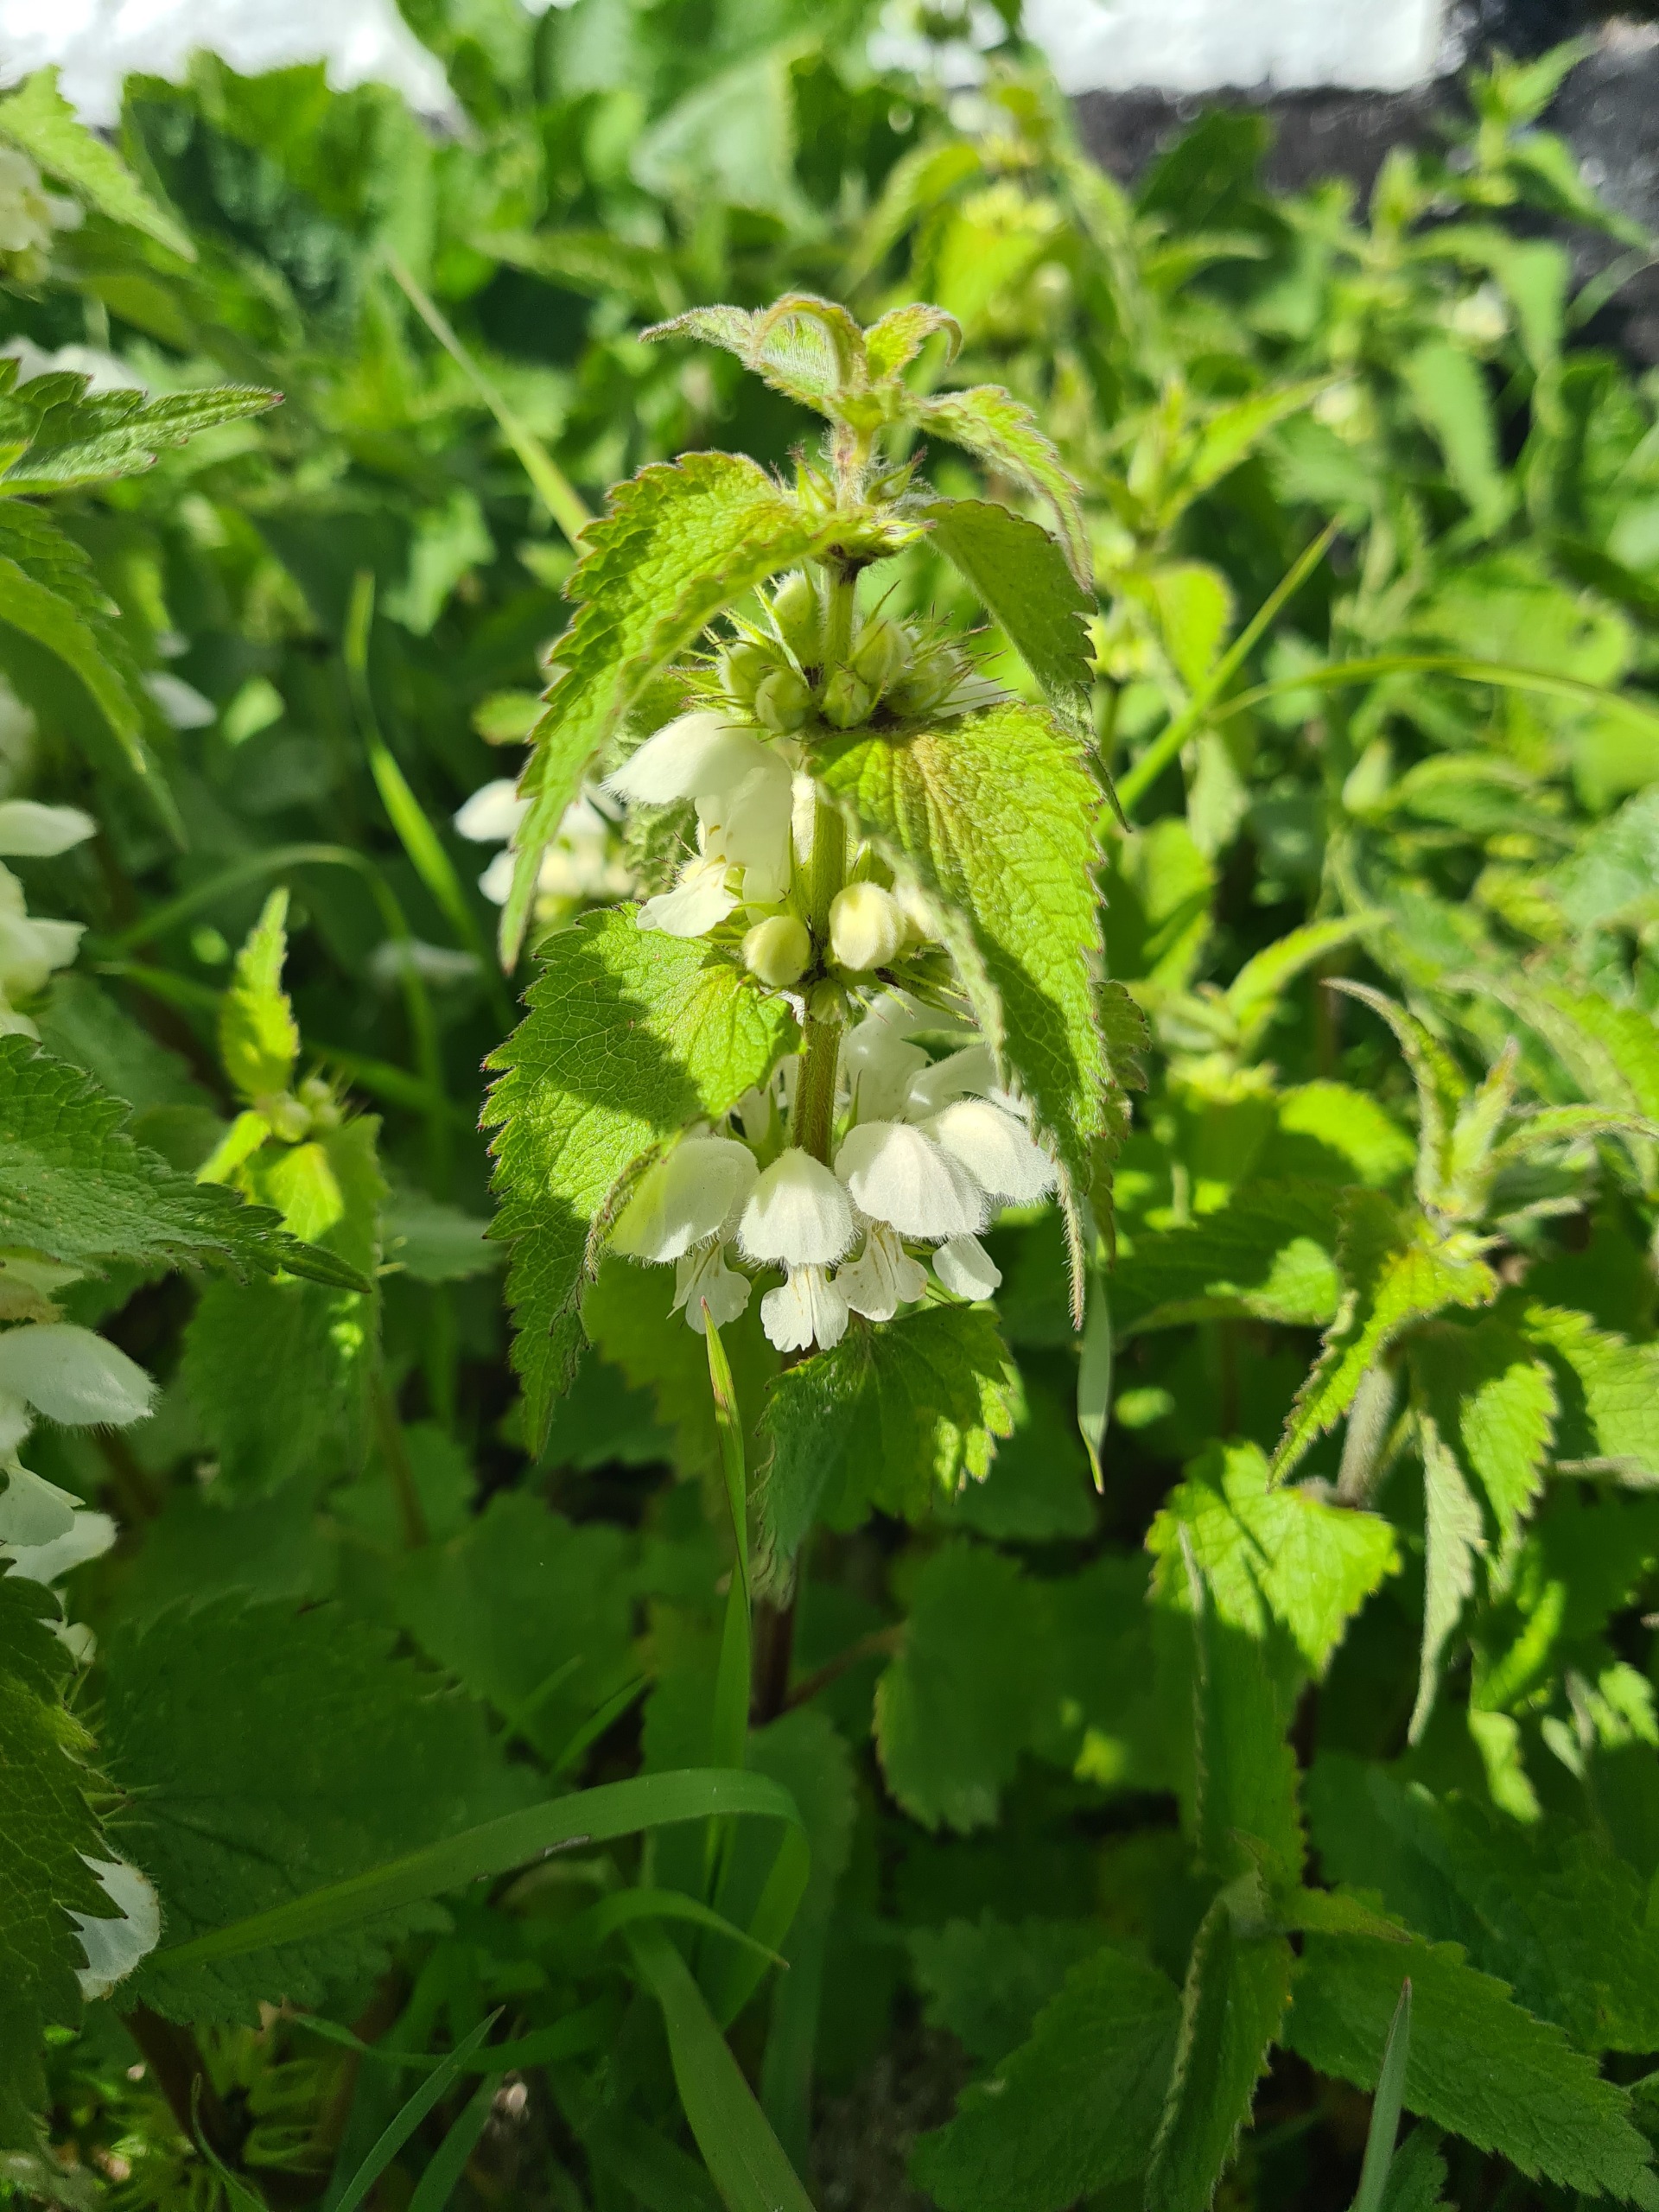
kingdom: Plantae
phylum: Tracheophyta
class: Magnoliopsida
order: Lamiales
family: Lamiaceae
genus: Lamium
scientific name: Lamium album
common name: Døvnælde
